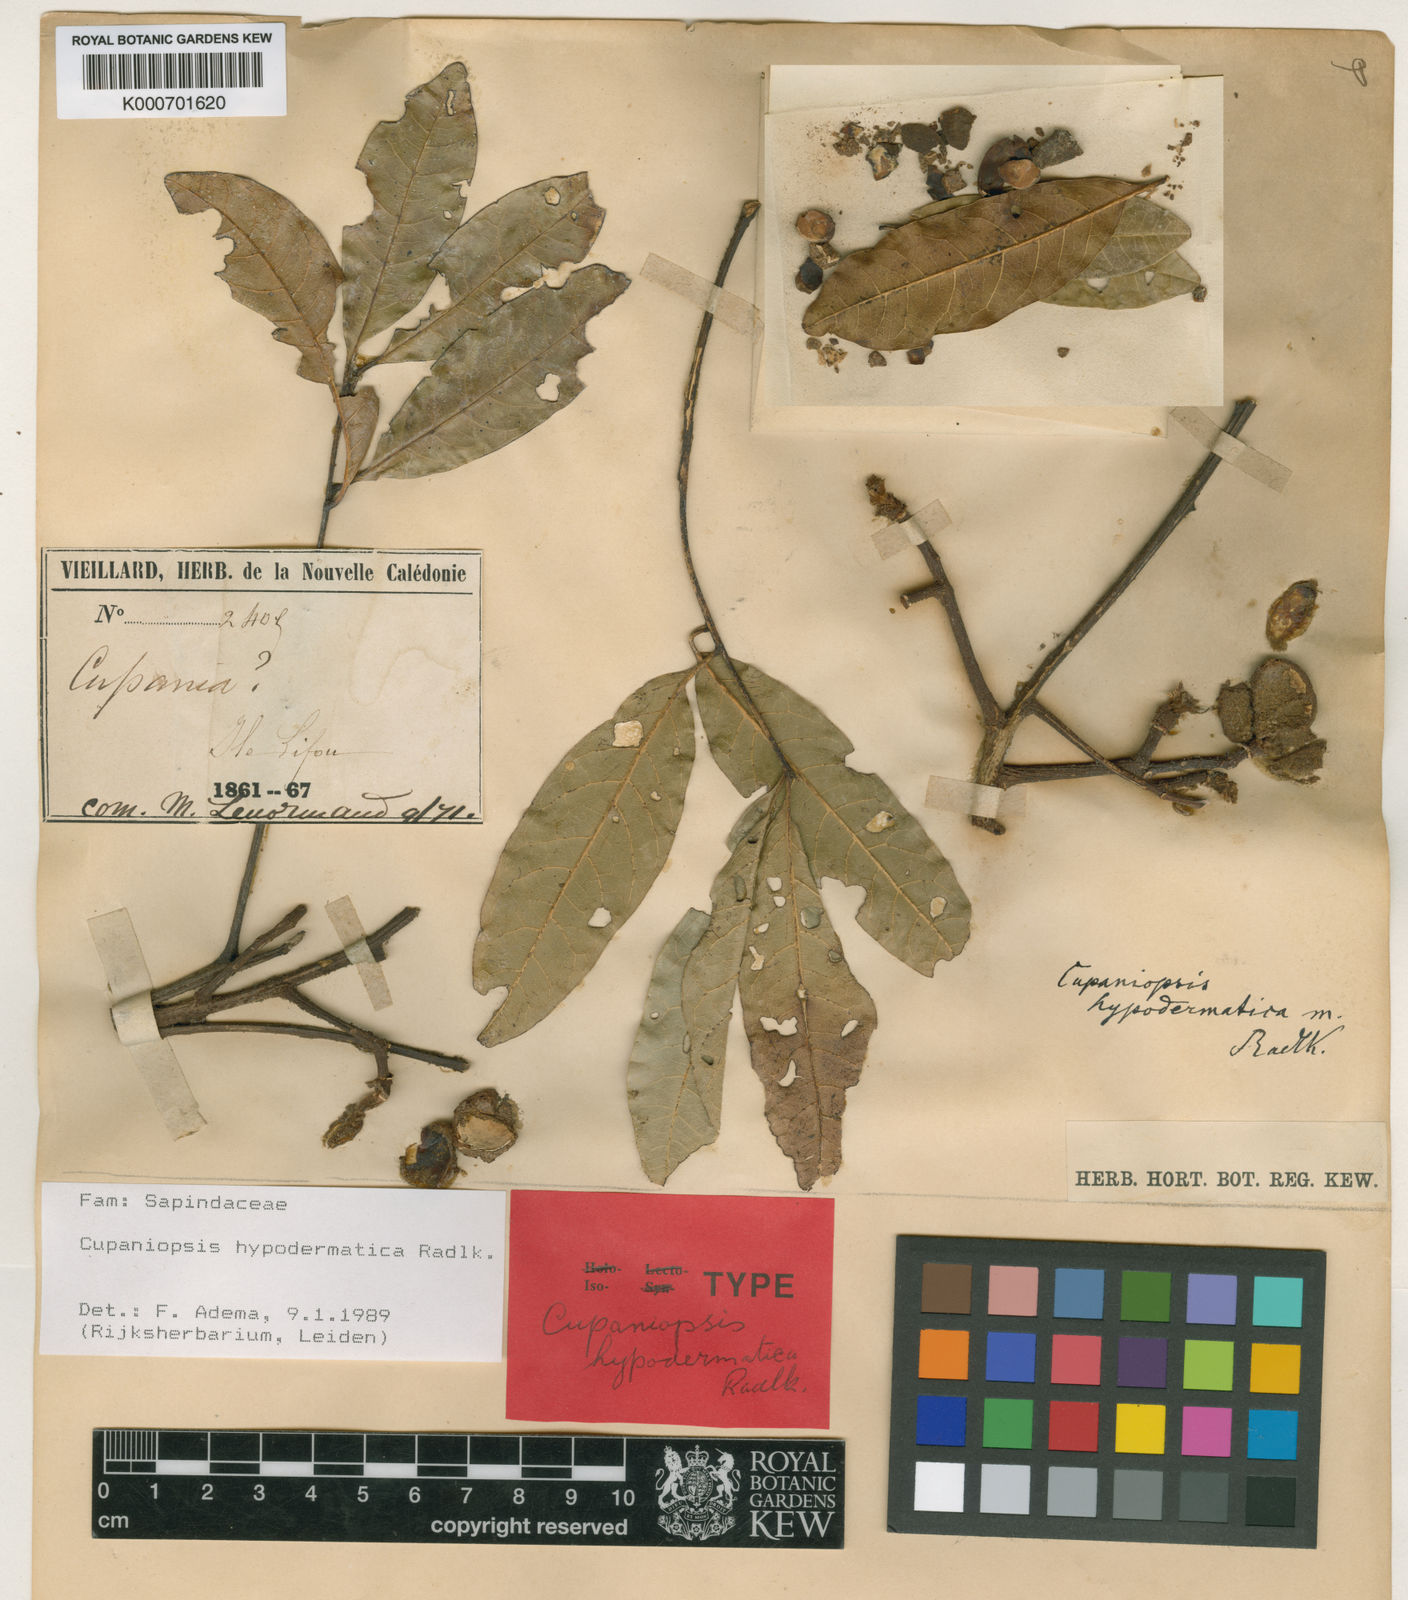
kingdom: Plantae
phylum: Tracheophyta
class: Magnoliopsida
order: Sapindales
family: Sapindaceae
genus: Cupaniopsis
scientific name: Cupaniopsis hypodermatica
